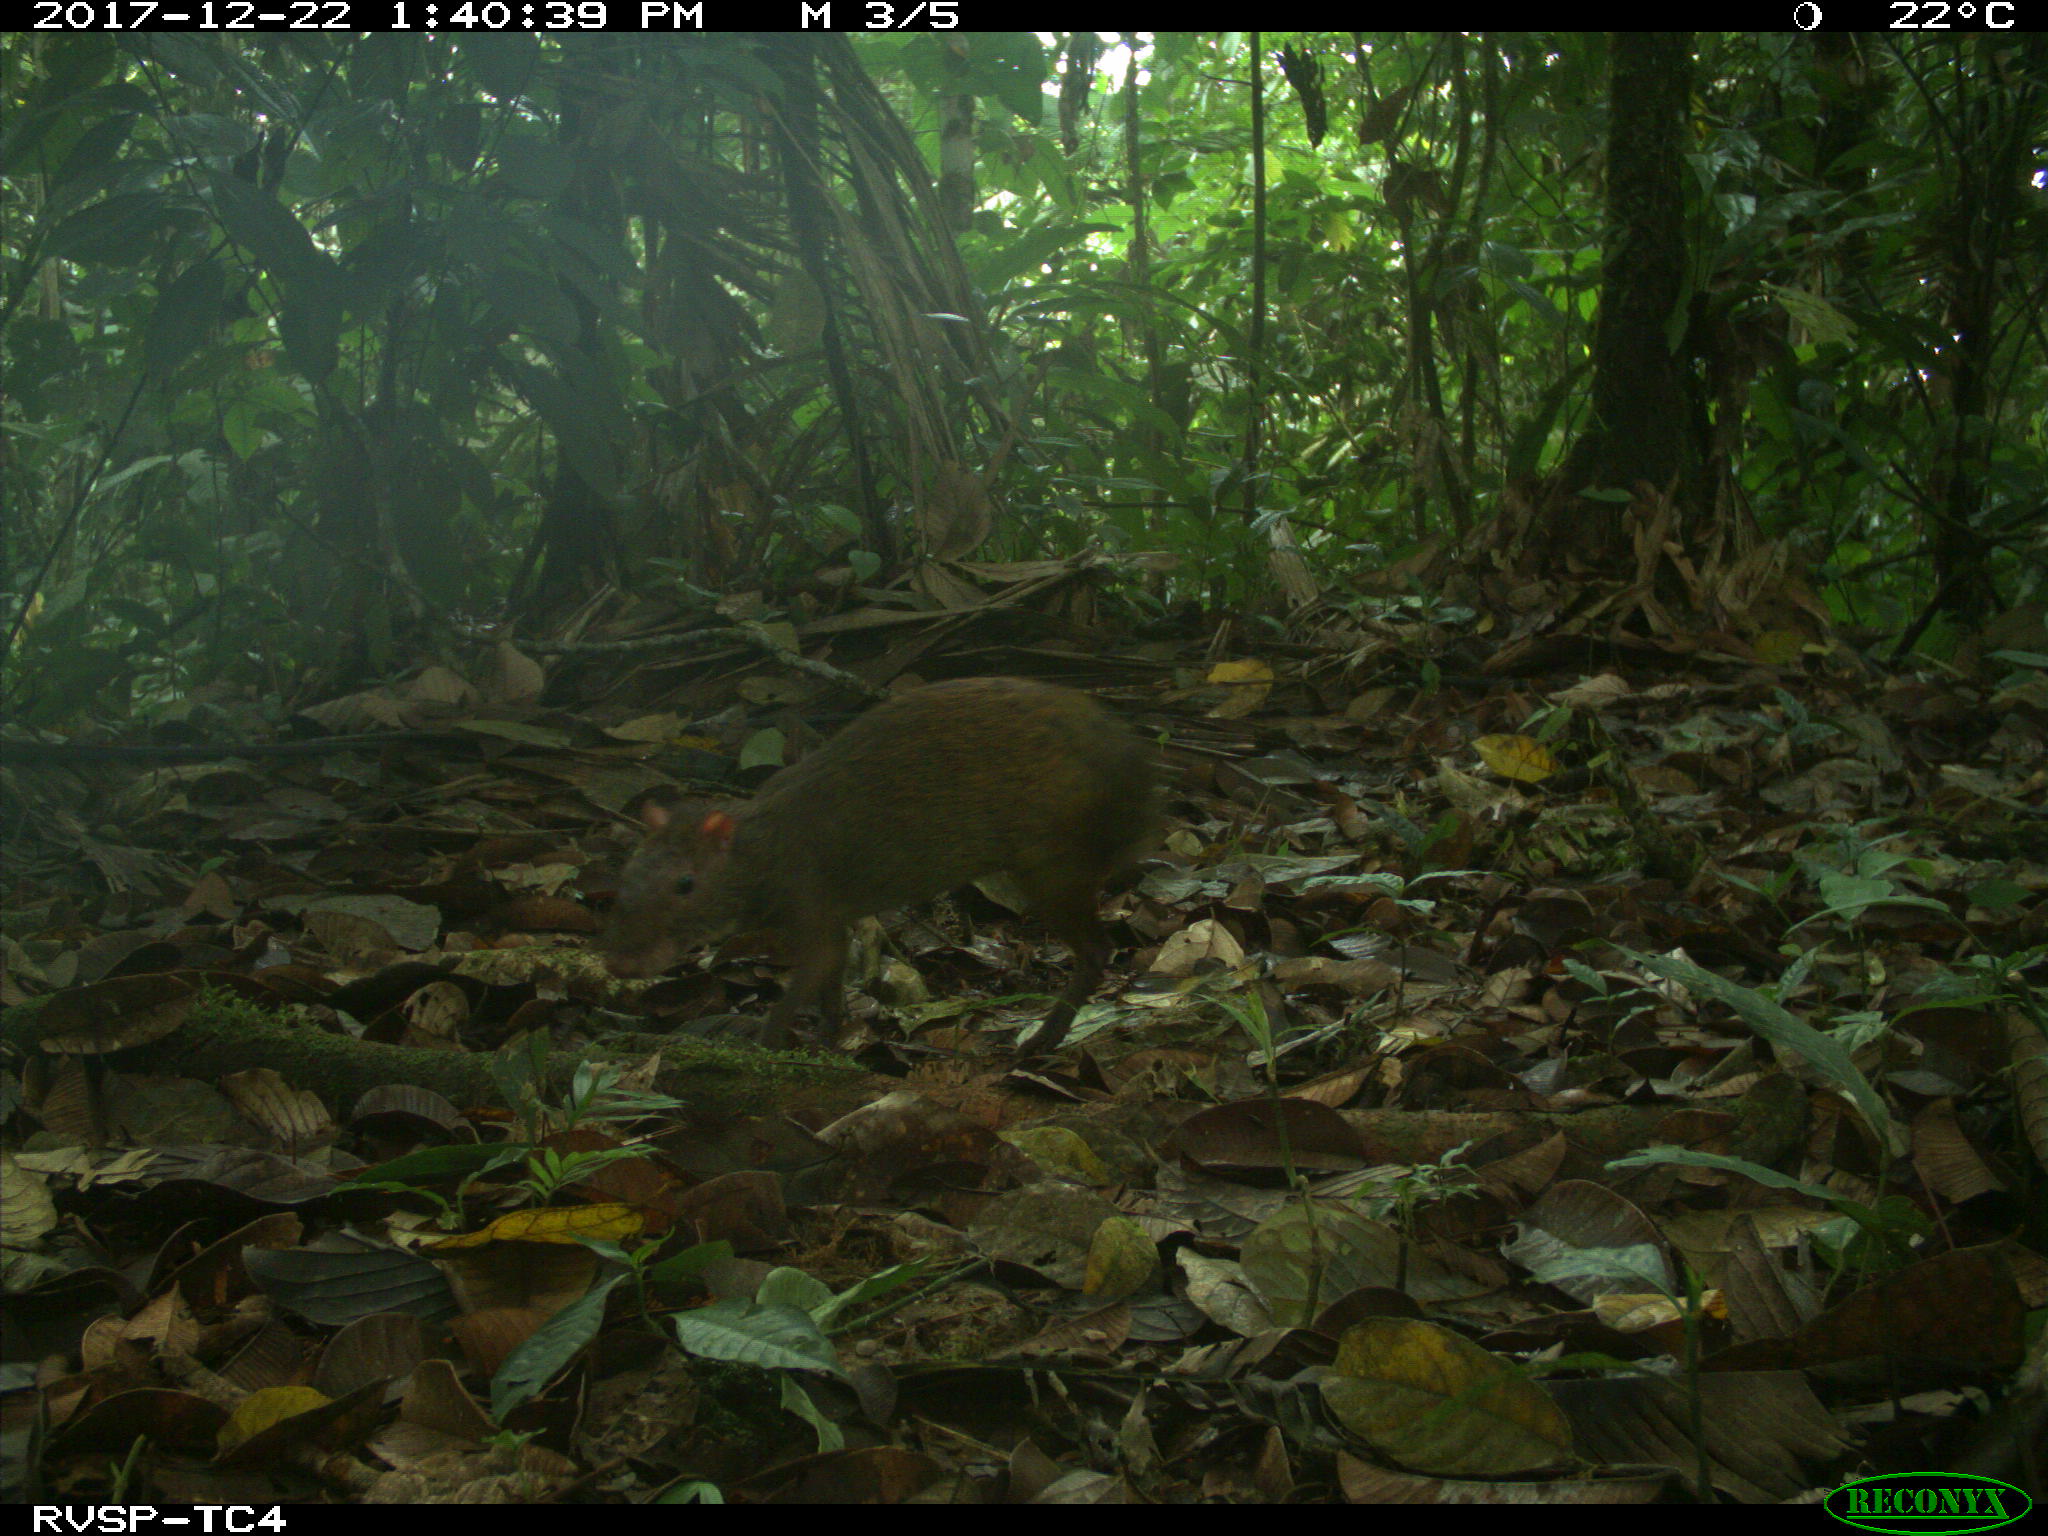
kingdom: Animalia
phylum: Chordata
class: Mammalia
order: Rodentia
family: Dasyproctidae
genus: Dasyprocta
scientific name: Dasyprocta punctata
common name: Central american agouti
